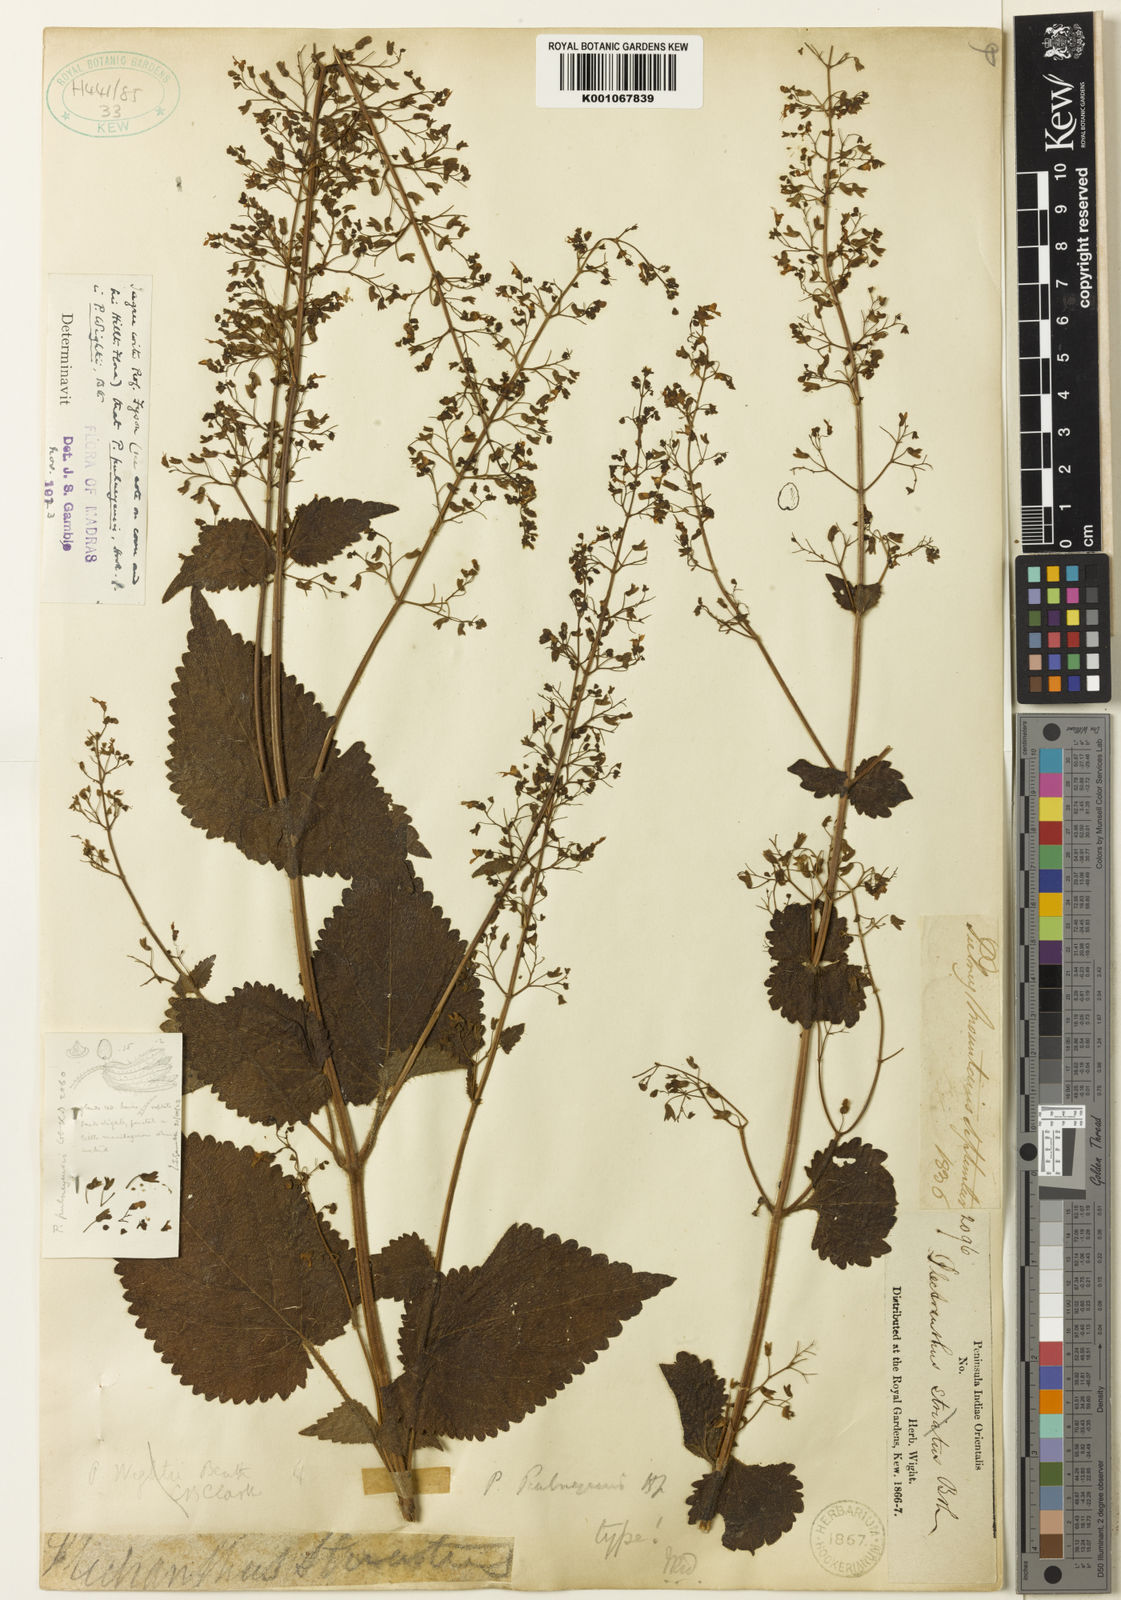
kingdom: Plantae
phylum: Tracheophyta
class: Magnoliopsida
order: Lamiales
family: Lamiaceae
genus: Isodon
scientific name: Isodon wightii
